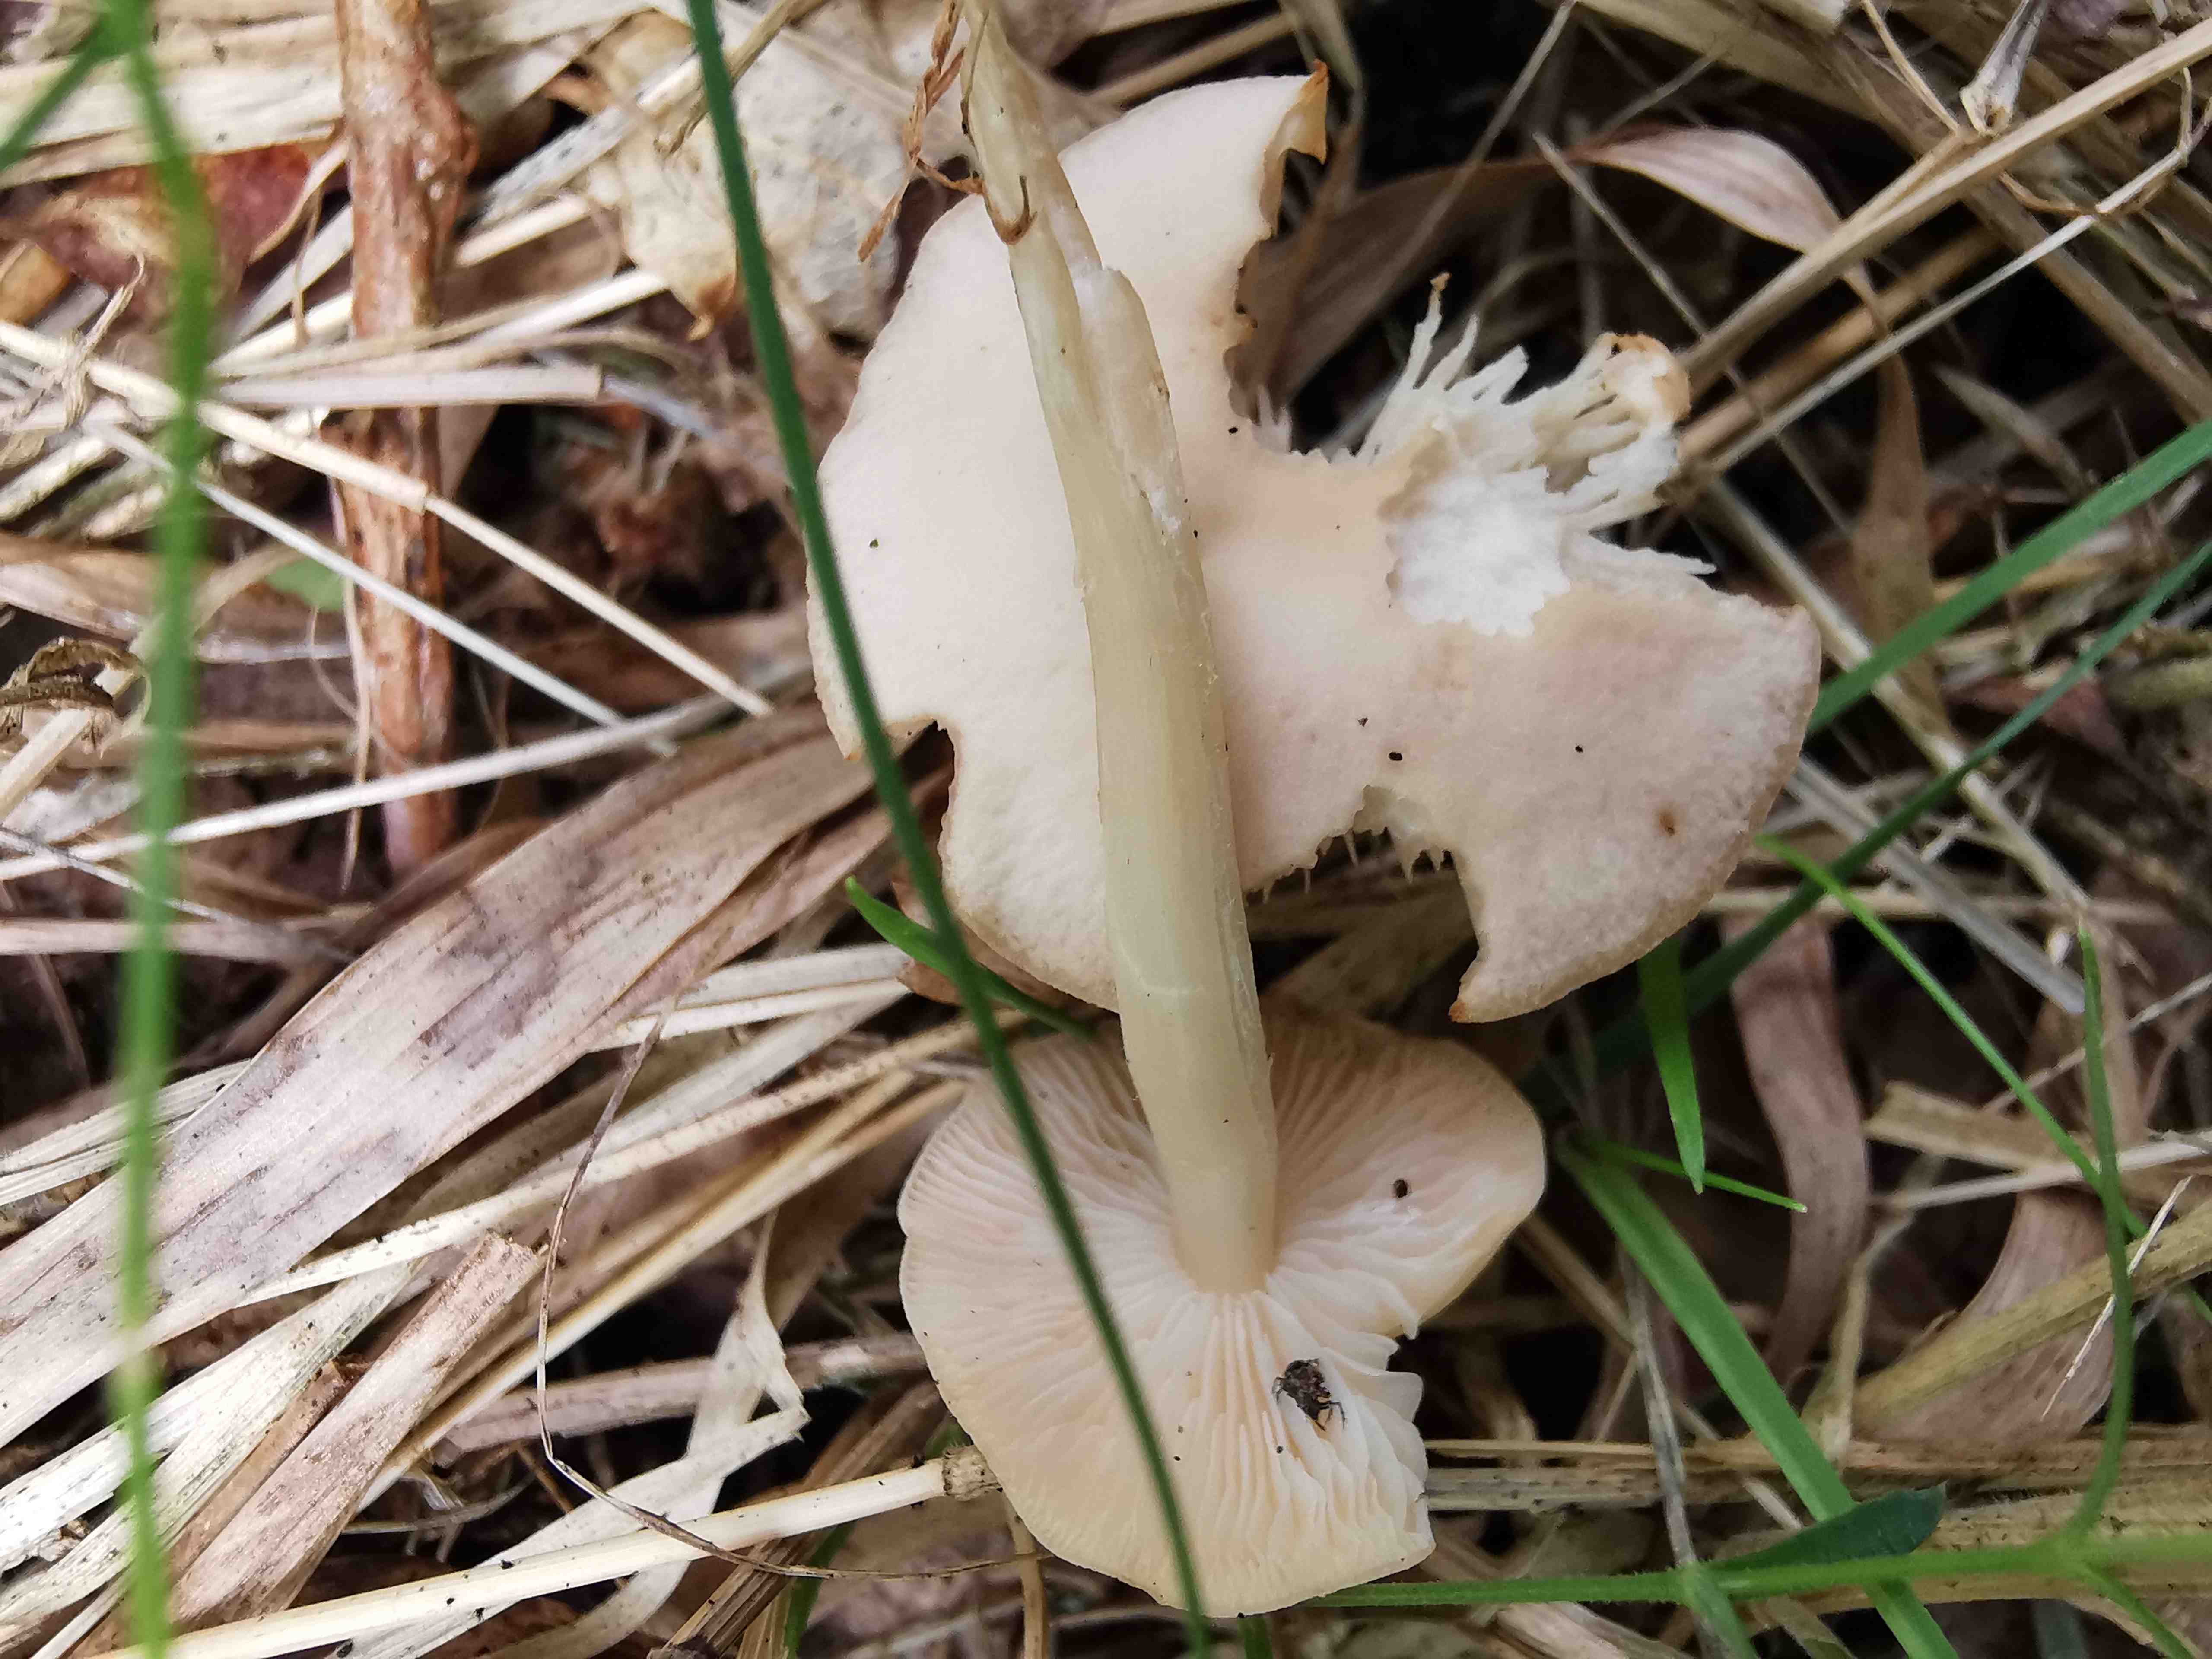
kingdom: Fungi
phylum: Basidiomycota
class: Agaricomycetes
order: Agaricales
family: Entolomataceae
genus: Entoloma
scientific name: Entoloma sericellum
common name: silkehvid rødblad
